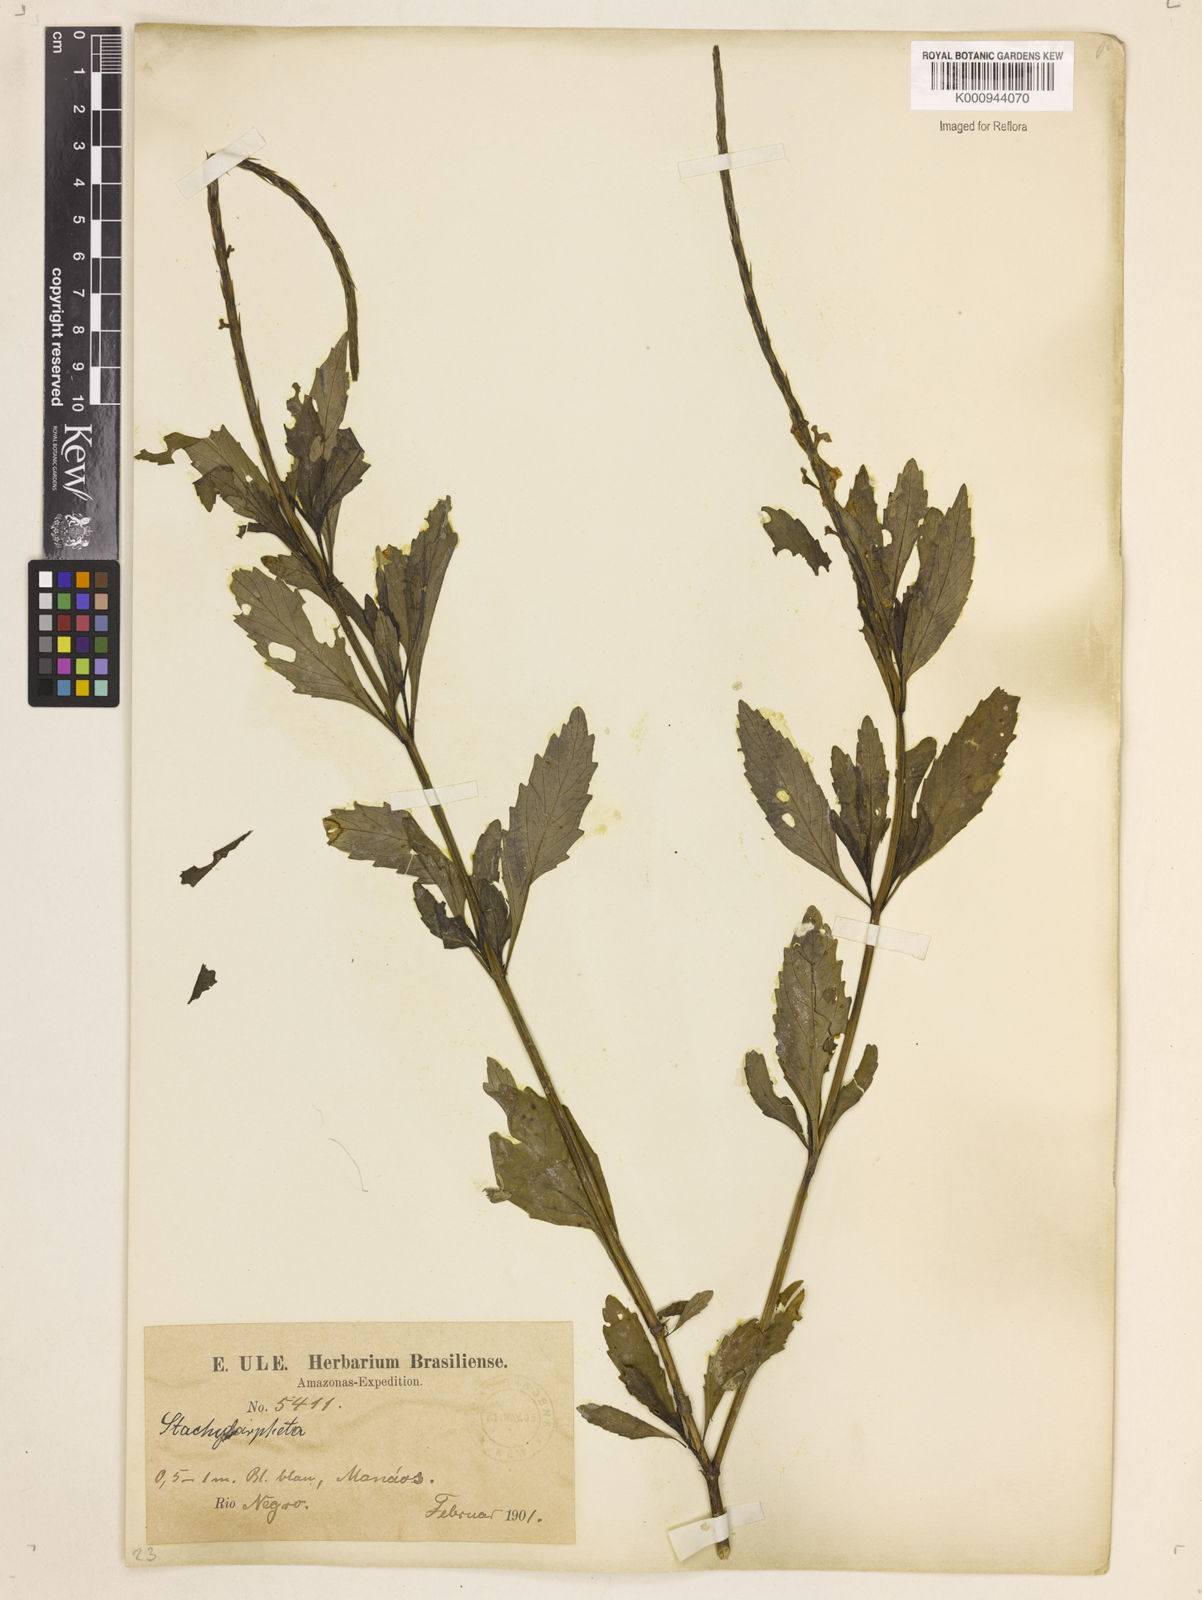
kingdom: Plantae
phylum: Tracheophyta
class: Magnoliopsida
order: Lamiales
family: Verbenaceae
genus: Stachytarpheta
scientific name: Stachytarpheta indica
